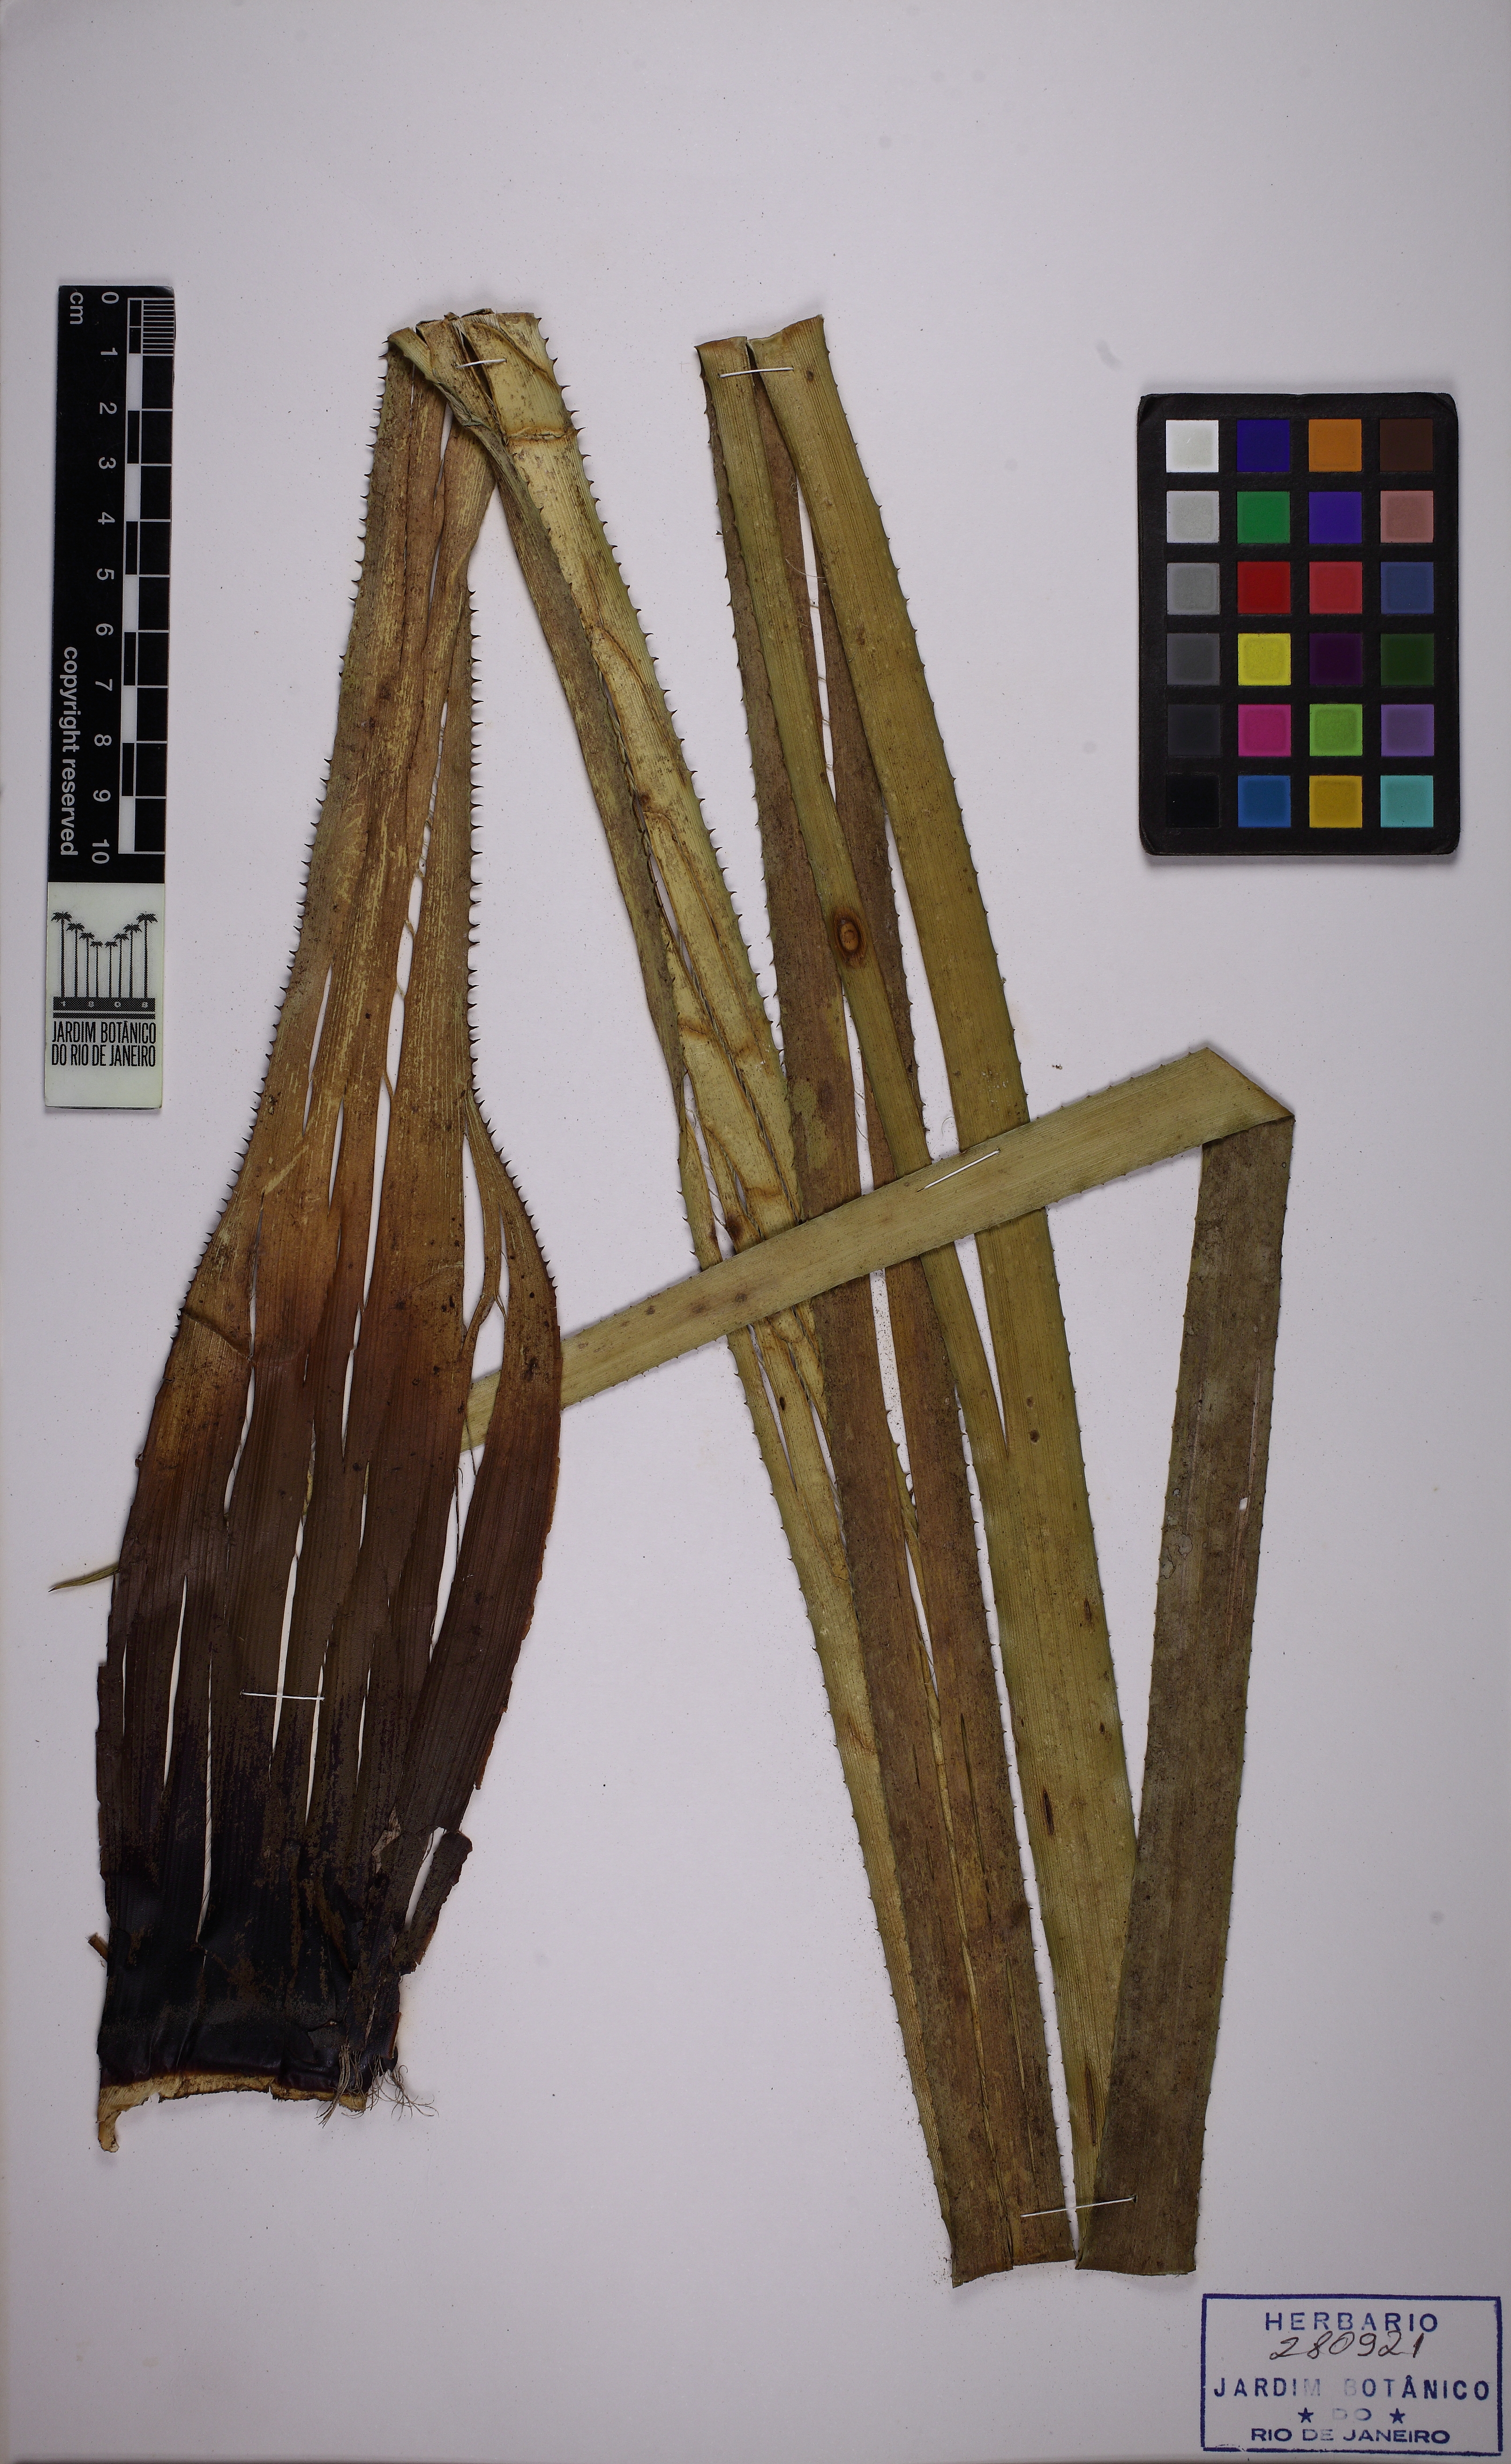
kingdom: Plantae
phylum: Tracheophyta
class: Liliopsida
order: Poales
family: Bromeliaceae
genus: Aechmea
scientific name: Aechmea vallerandii
